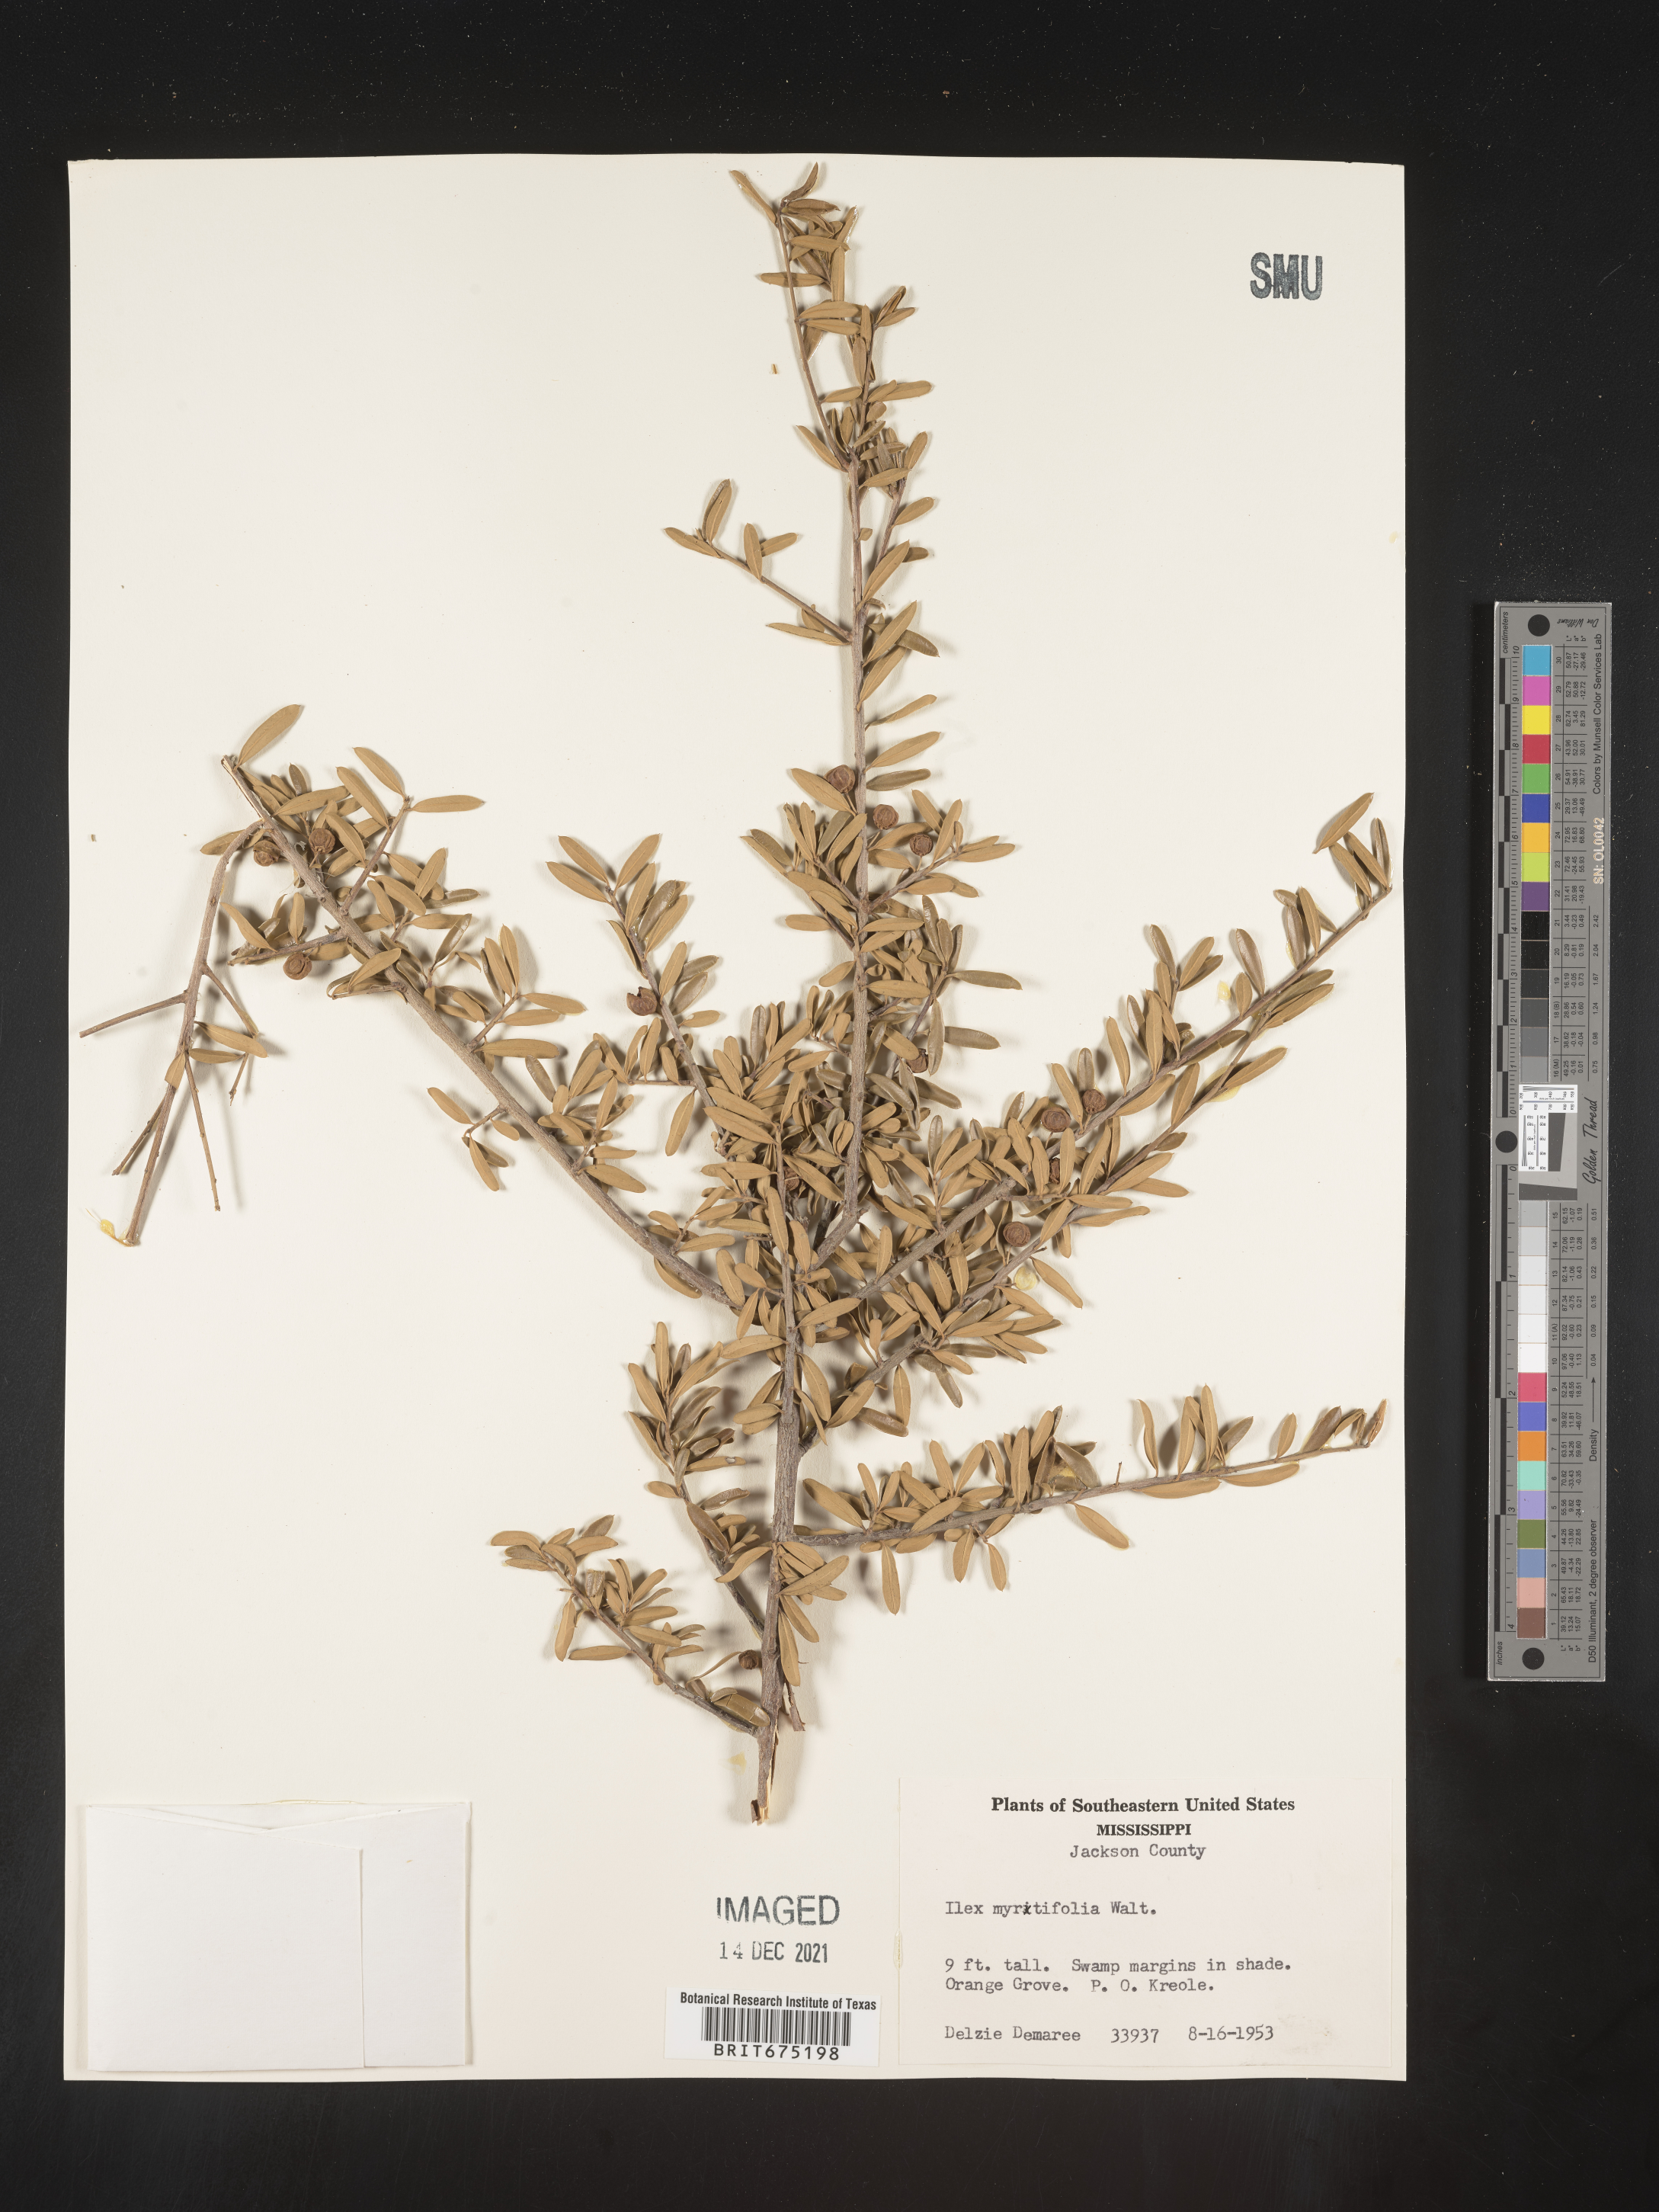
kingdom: Plantae
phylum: Tracheophyta
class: Magnoliopsida
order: Aquifoliales
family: Aquifoliaceae
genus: Ilex
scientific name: Ilex myrtifolia
